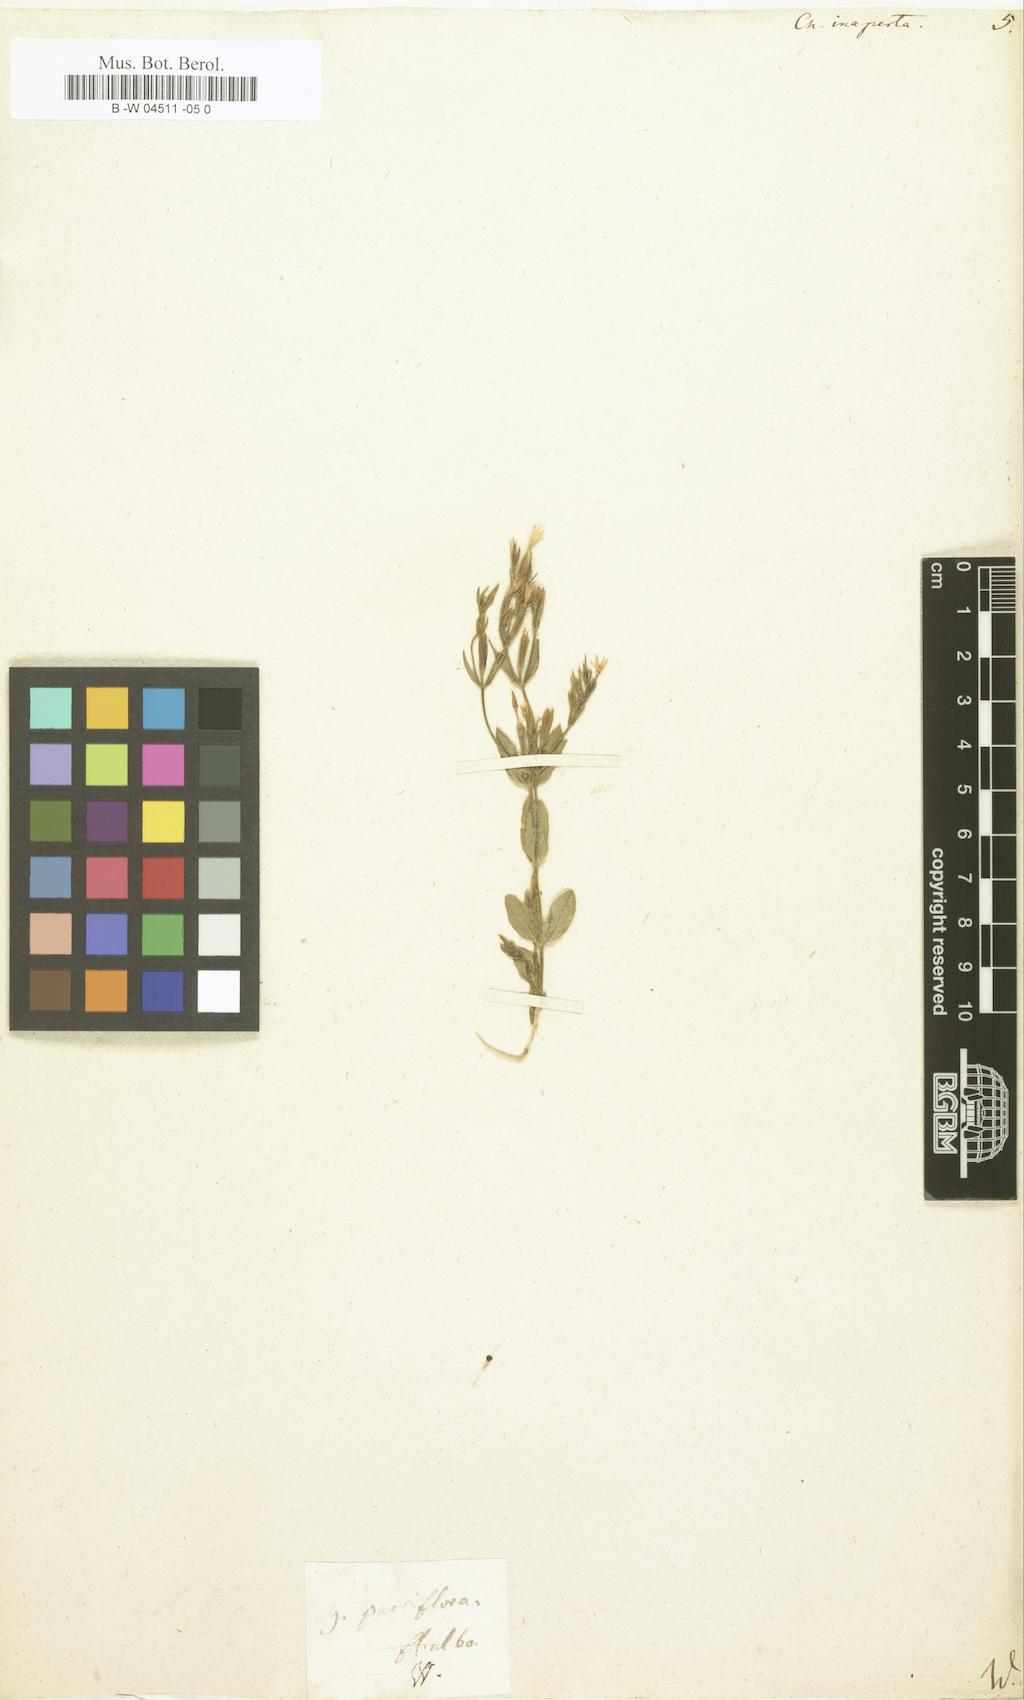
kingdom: Plantae
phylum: Tracheophyta
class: Magnoliopsida
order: Gentianales
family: Gentianaceae
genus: Centaurium
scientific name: Centaurium pulchellum
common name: Lesser centaury
